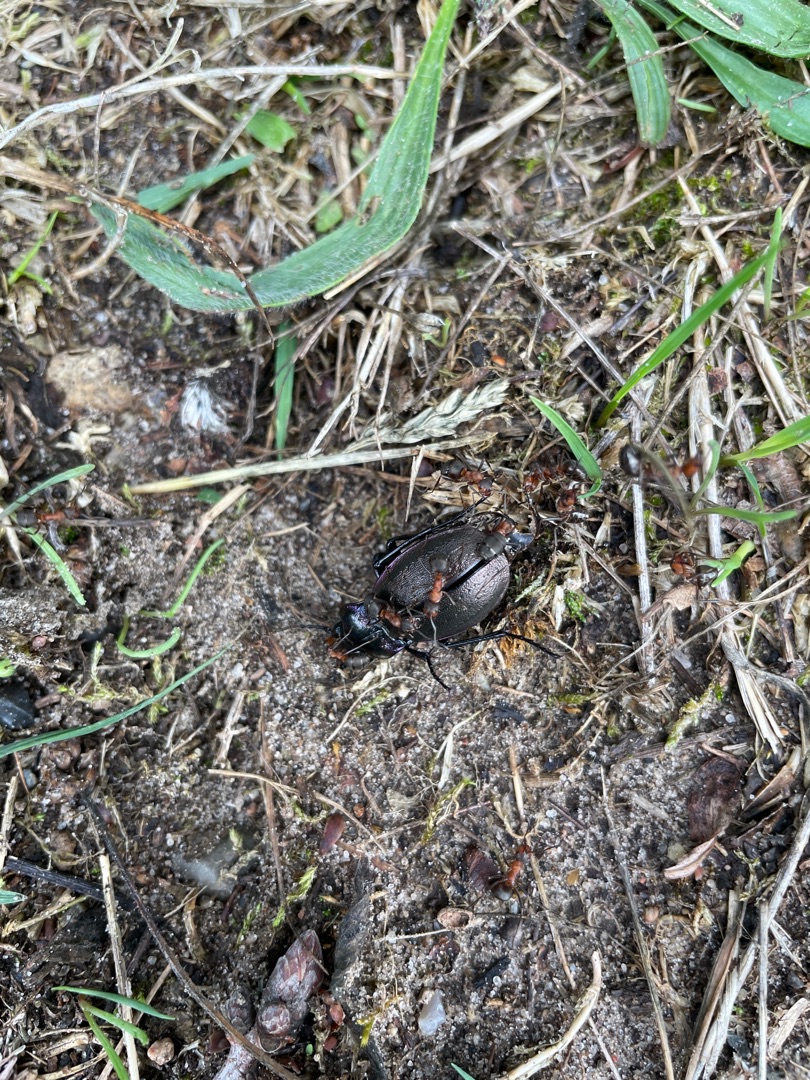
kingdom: Animalia
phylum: Arthropoda
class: Insecta
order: Coleoptera
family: Carabidae
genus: Carabus
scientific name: Carabus nemoralis
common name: Kratløber
